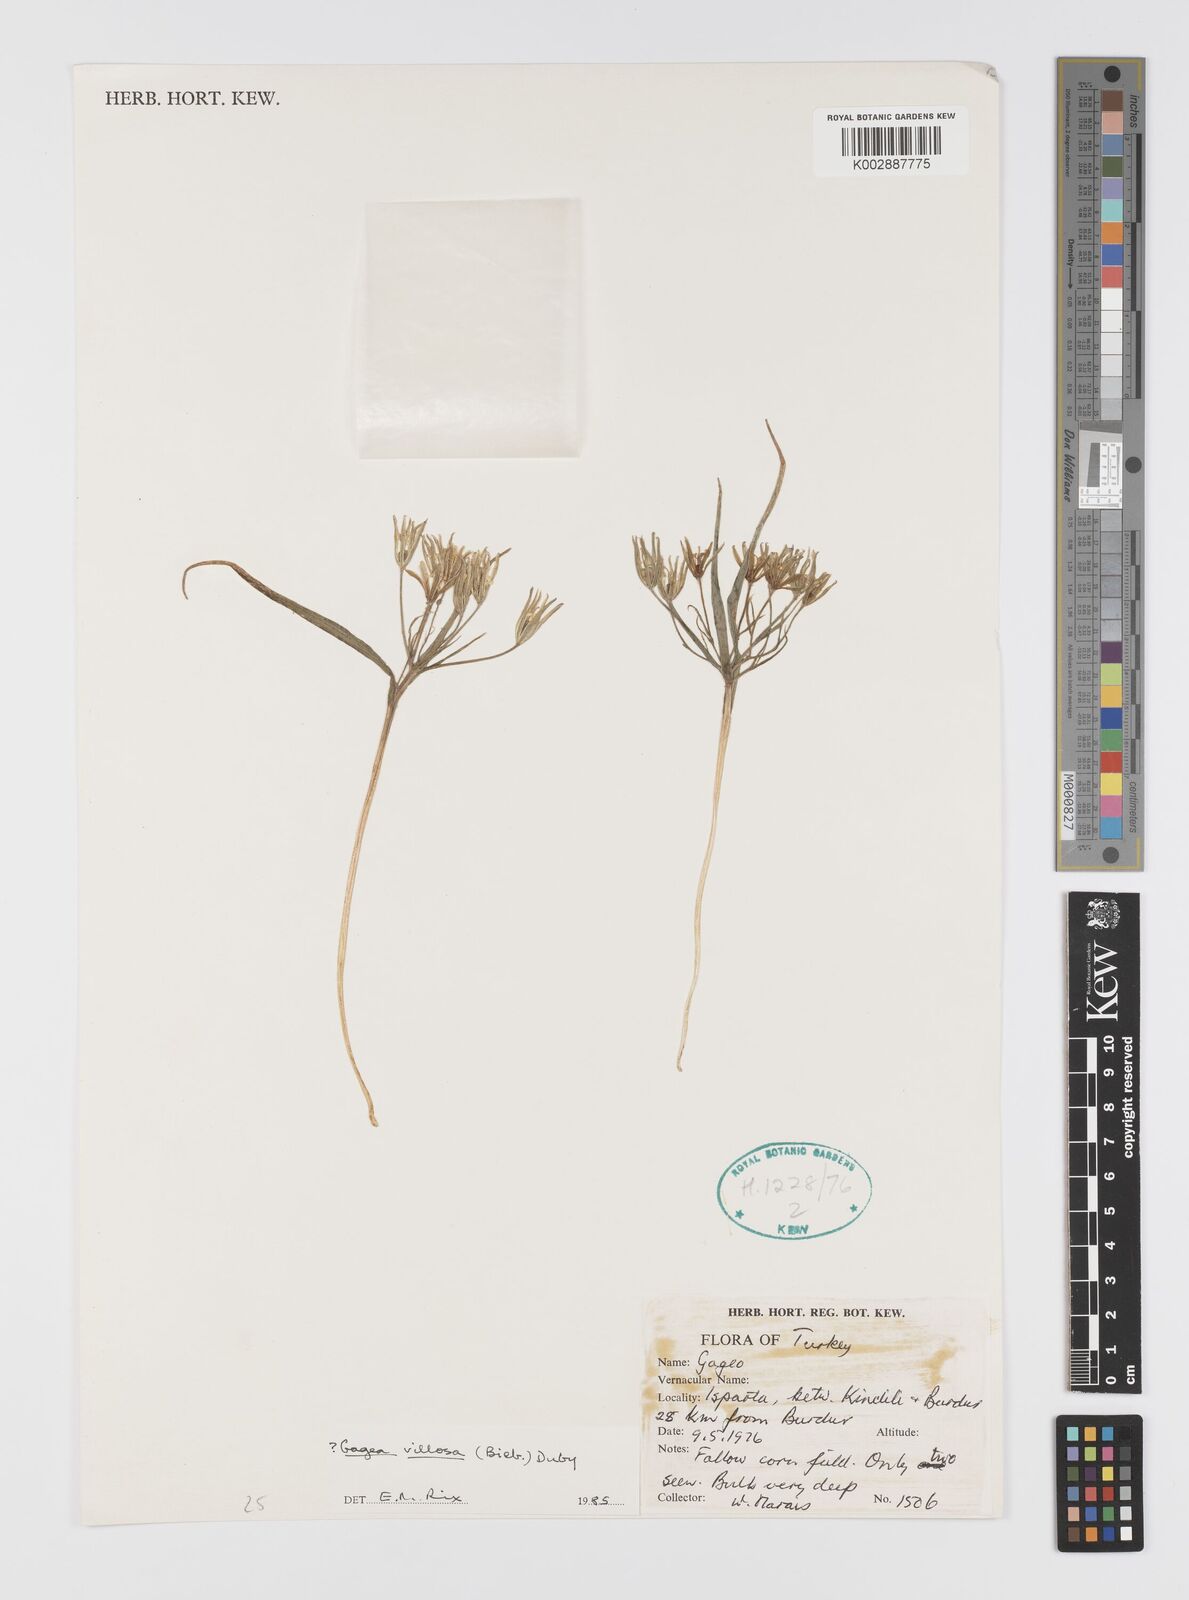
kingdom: Plantae
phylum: Tracheophyta
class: Liliopsida
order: Liliales
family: Liliaceae
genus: Gagea
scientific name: Gagea villosa
